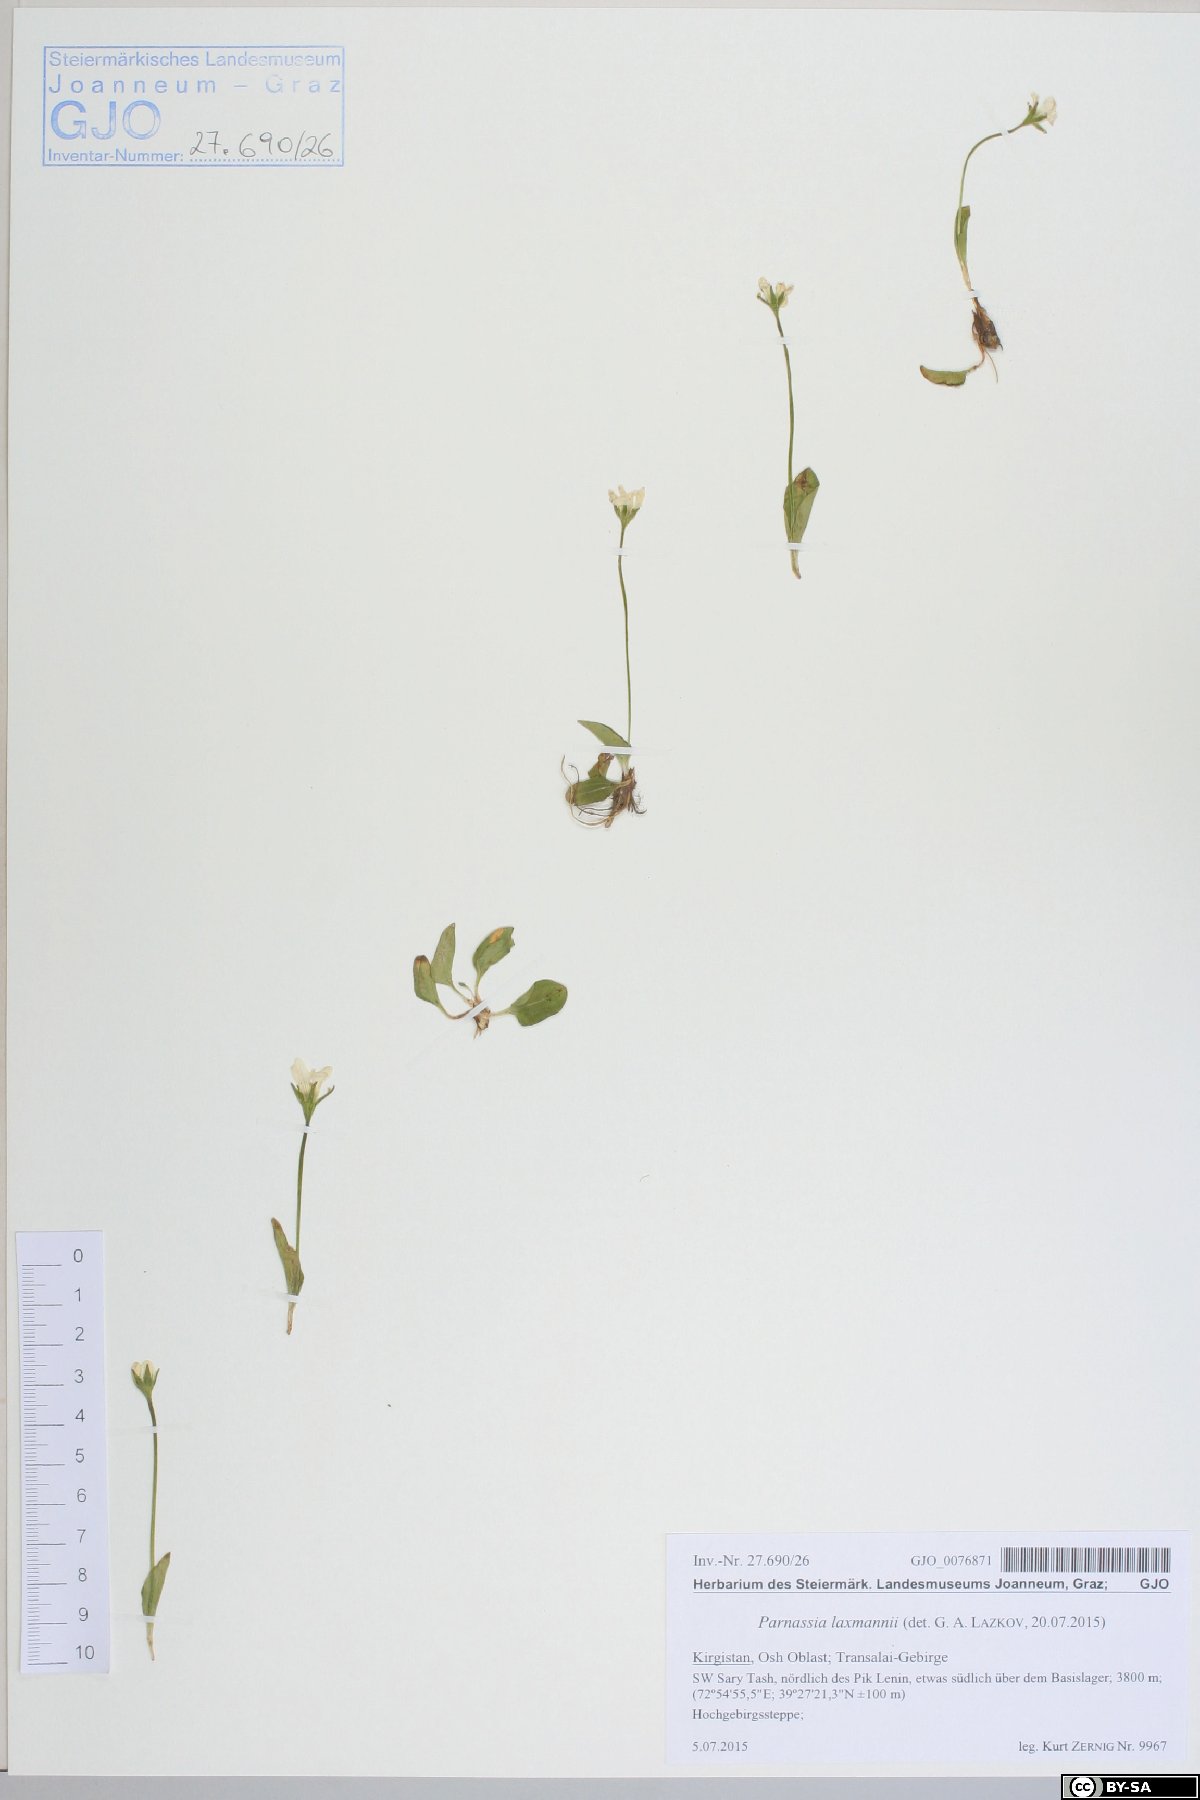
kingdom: Plantae
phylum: Tracheophyta
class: Magnoliopsida
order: Celastrales
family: Parnassiaceae
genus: Parnassia
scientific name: Parnassia laxmannii
